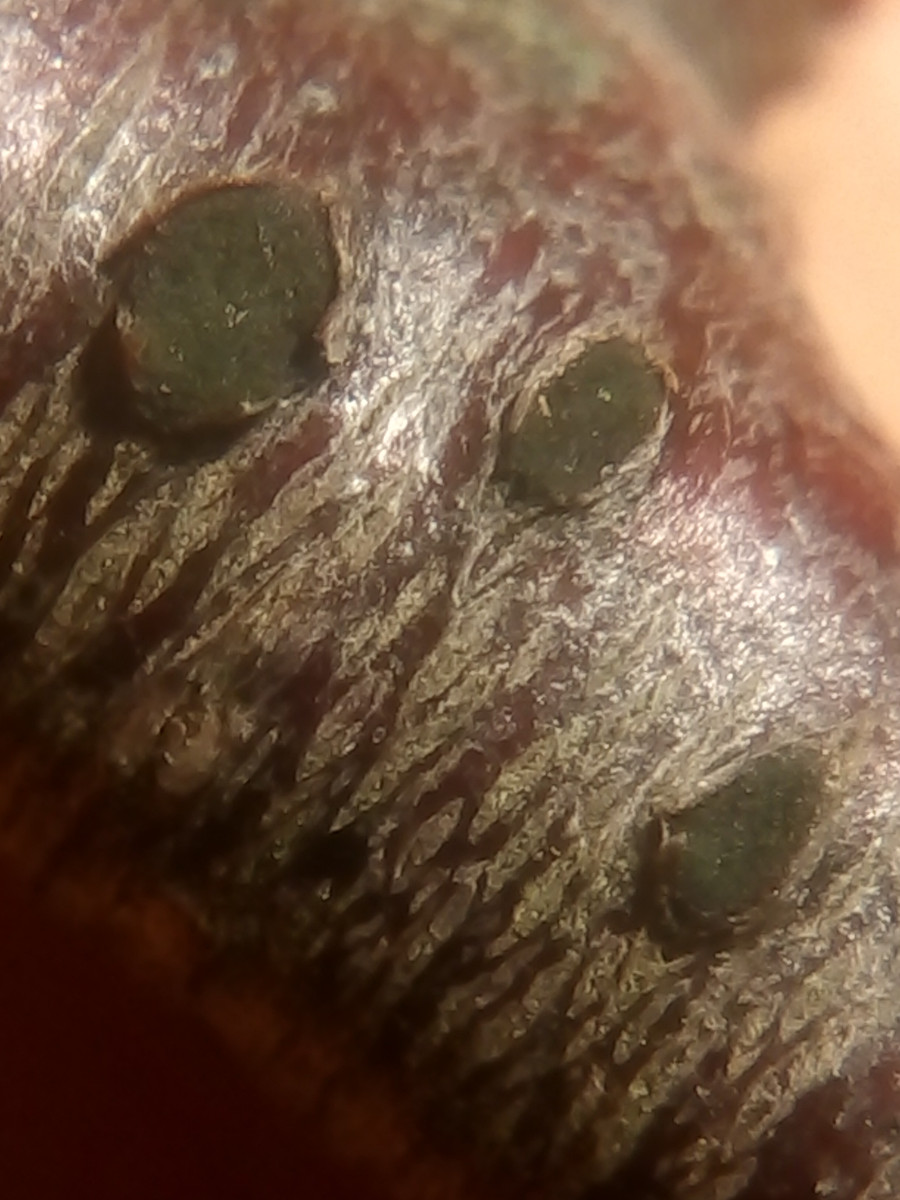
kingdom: Fungi
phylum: Ascomycota
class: Sordariomycetes
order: Diaporthales
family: Coryneaceae
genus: Coryneum
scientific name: Coryneum lanciforme
